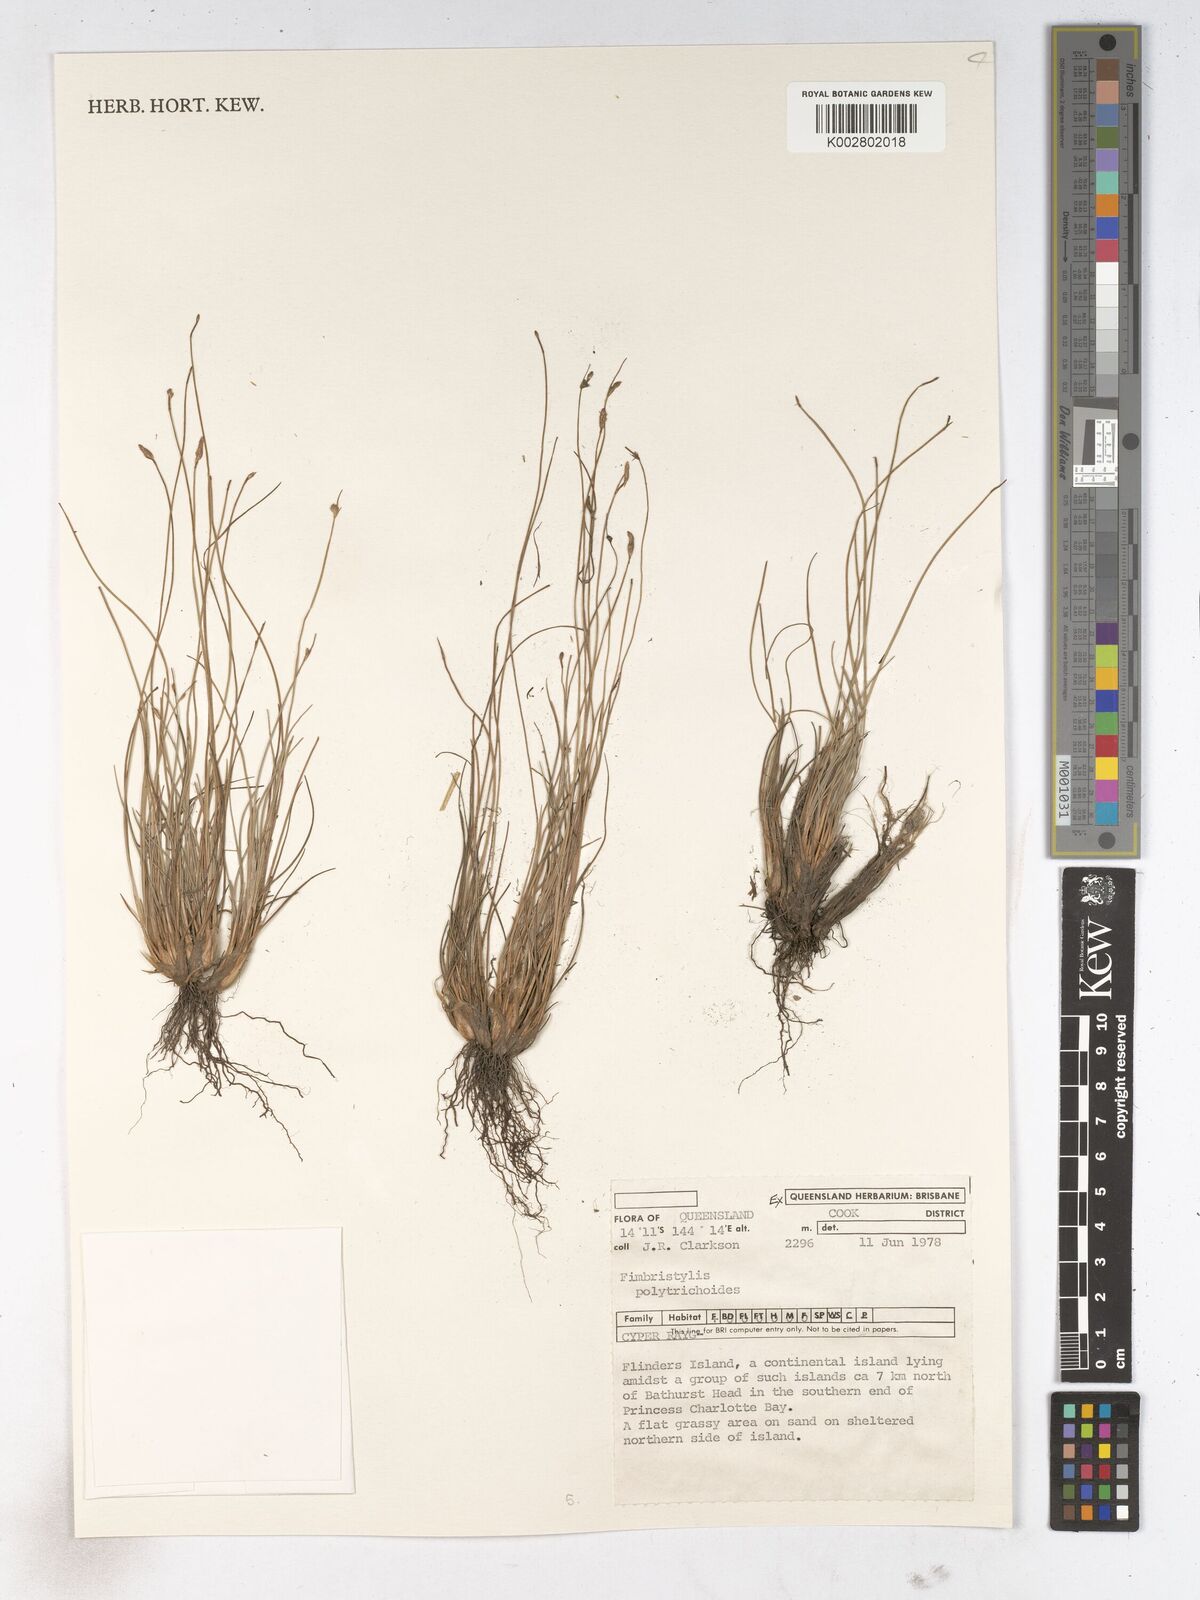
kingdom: Plantae
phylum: Tracheophyta
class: Liliopsida
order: Poales
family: Cyperaceae
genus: Fimbristylis
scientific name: Fimbristylis polytrichoides
